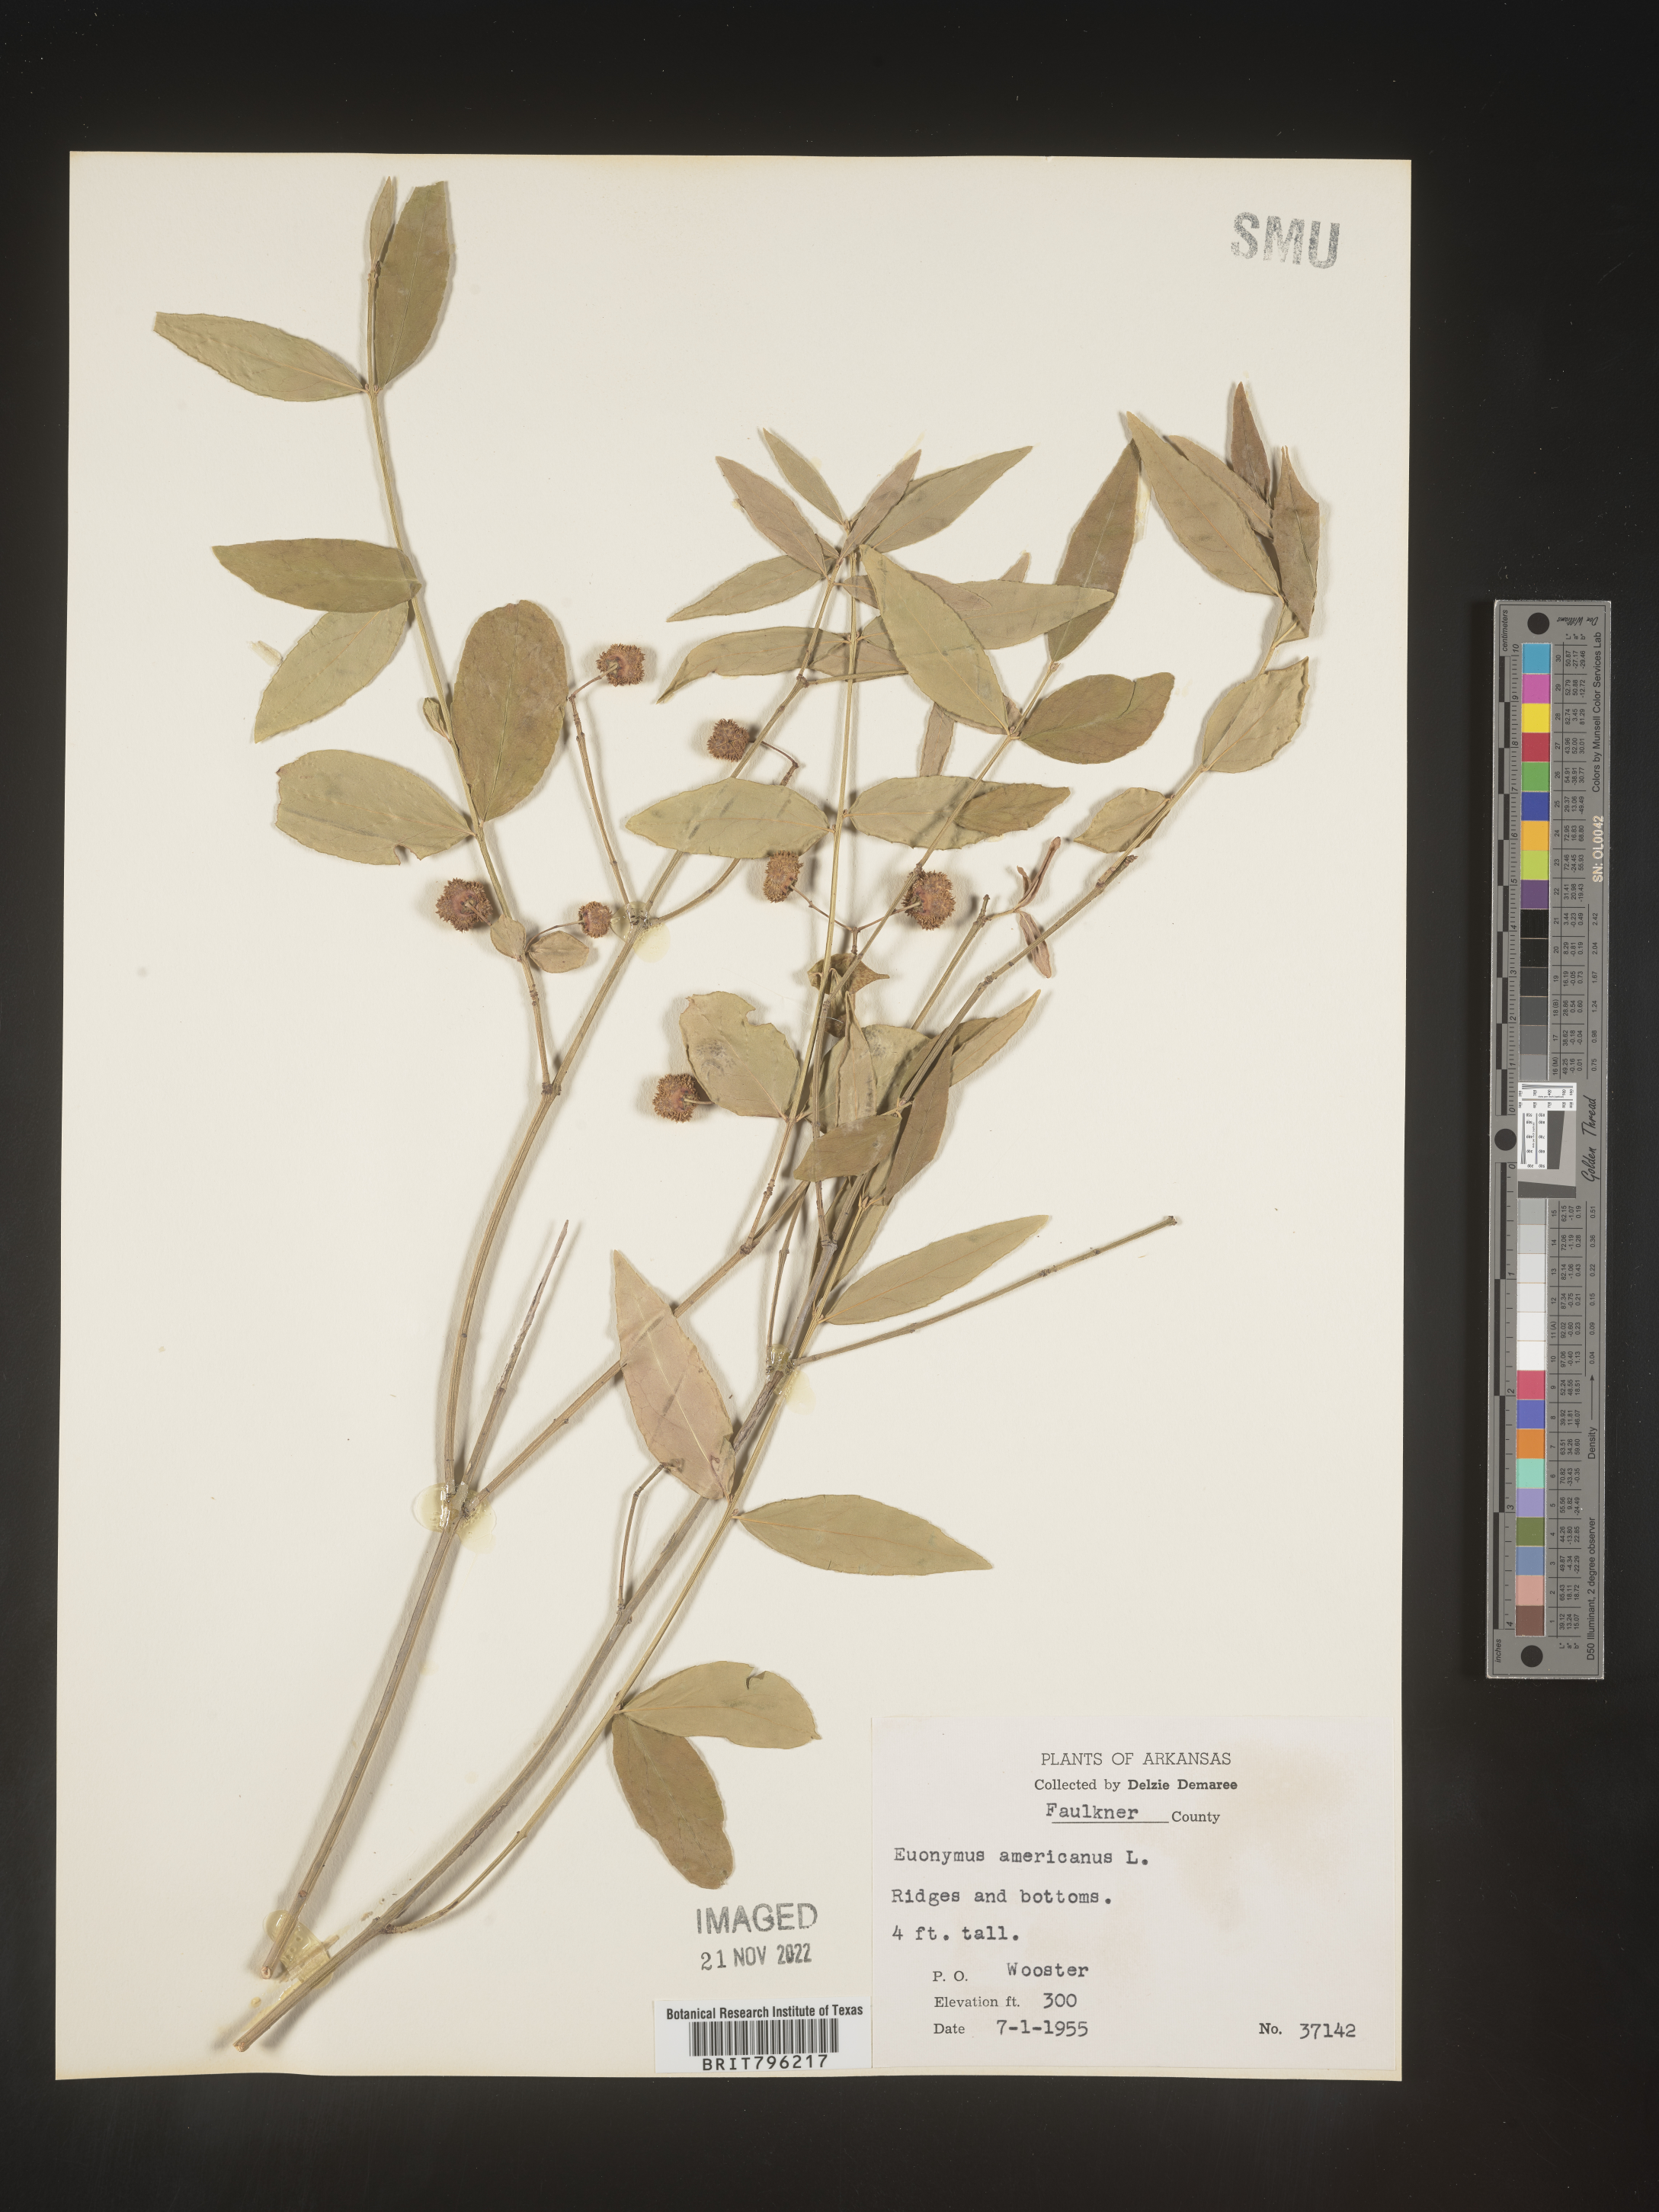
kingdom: Plantae
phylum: Tracheophyta
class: Magnoliopsida
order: Celastrales
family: Celastraceae
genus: Euonymus
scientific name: Euonymus americanus
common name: Bursting-heart
